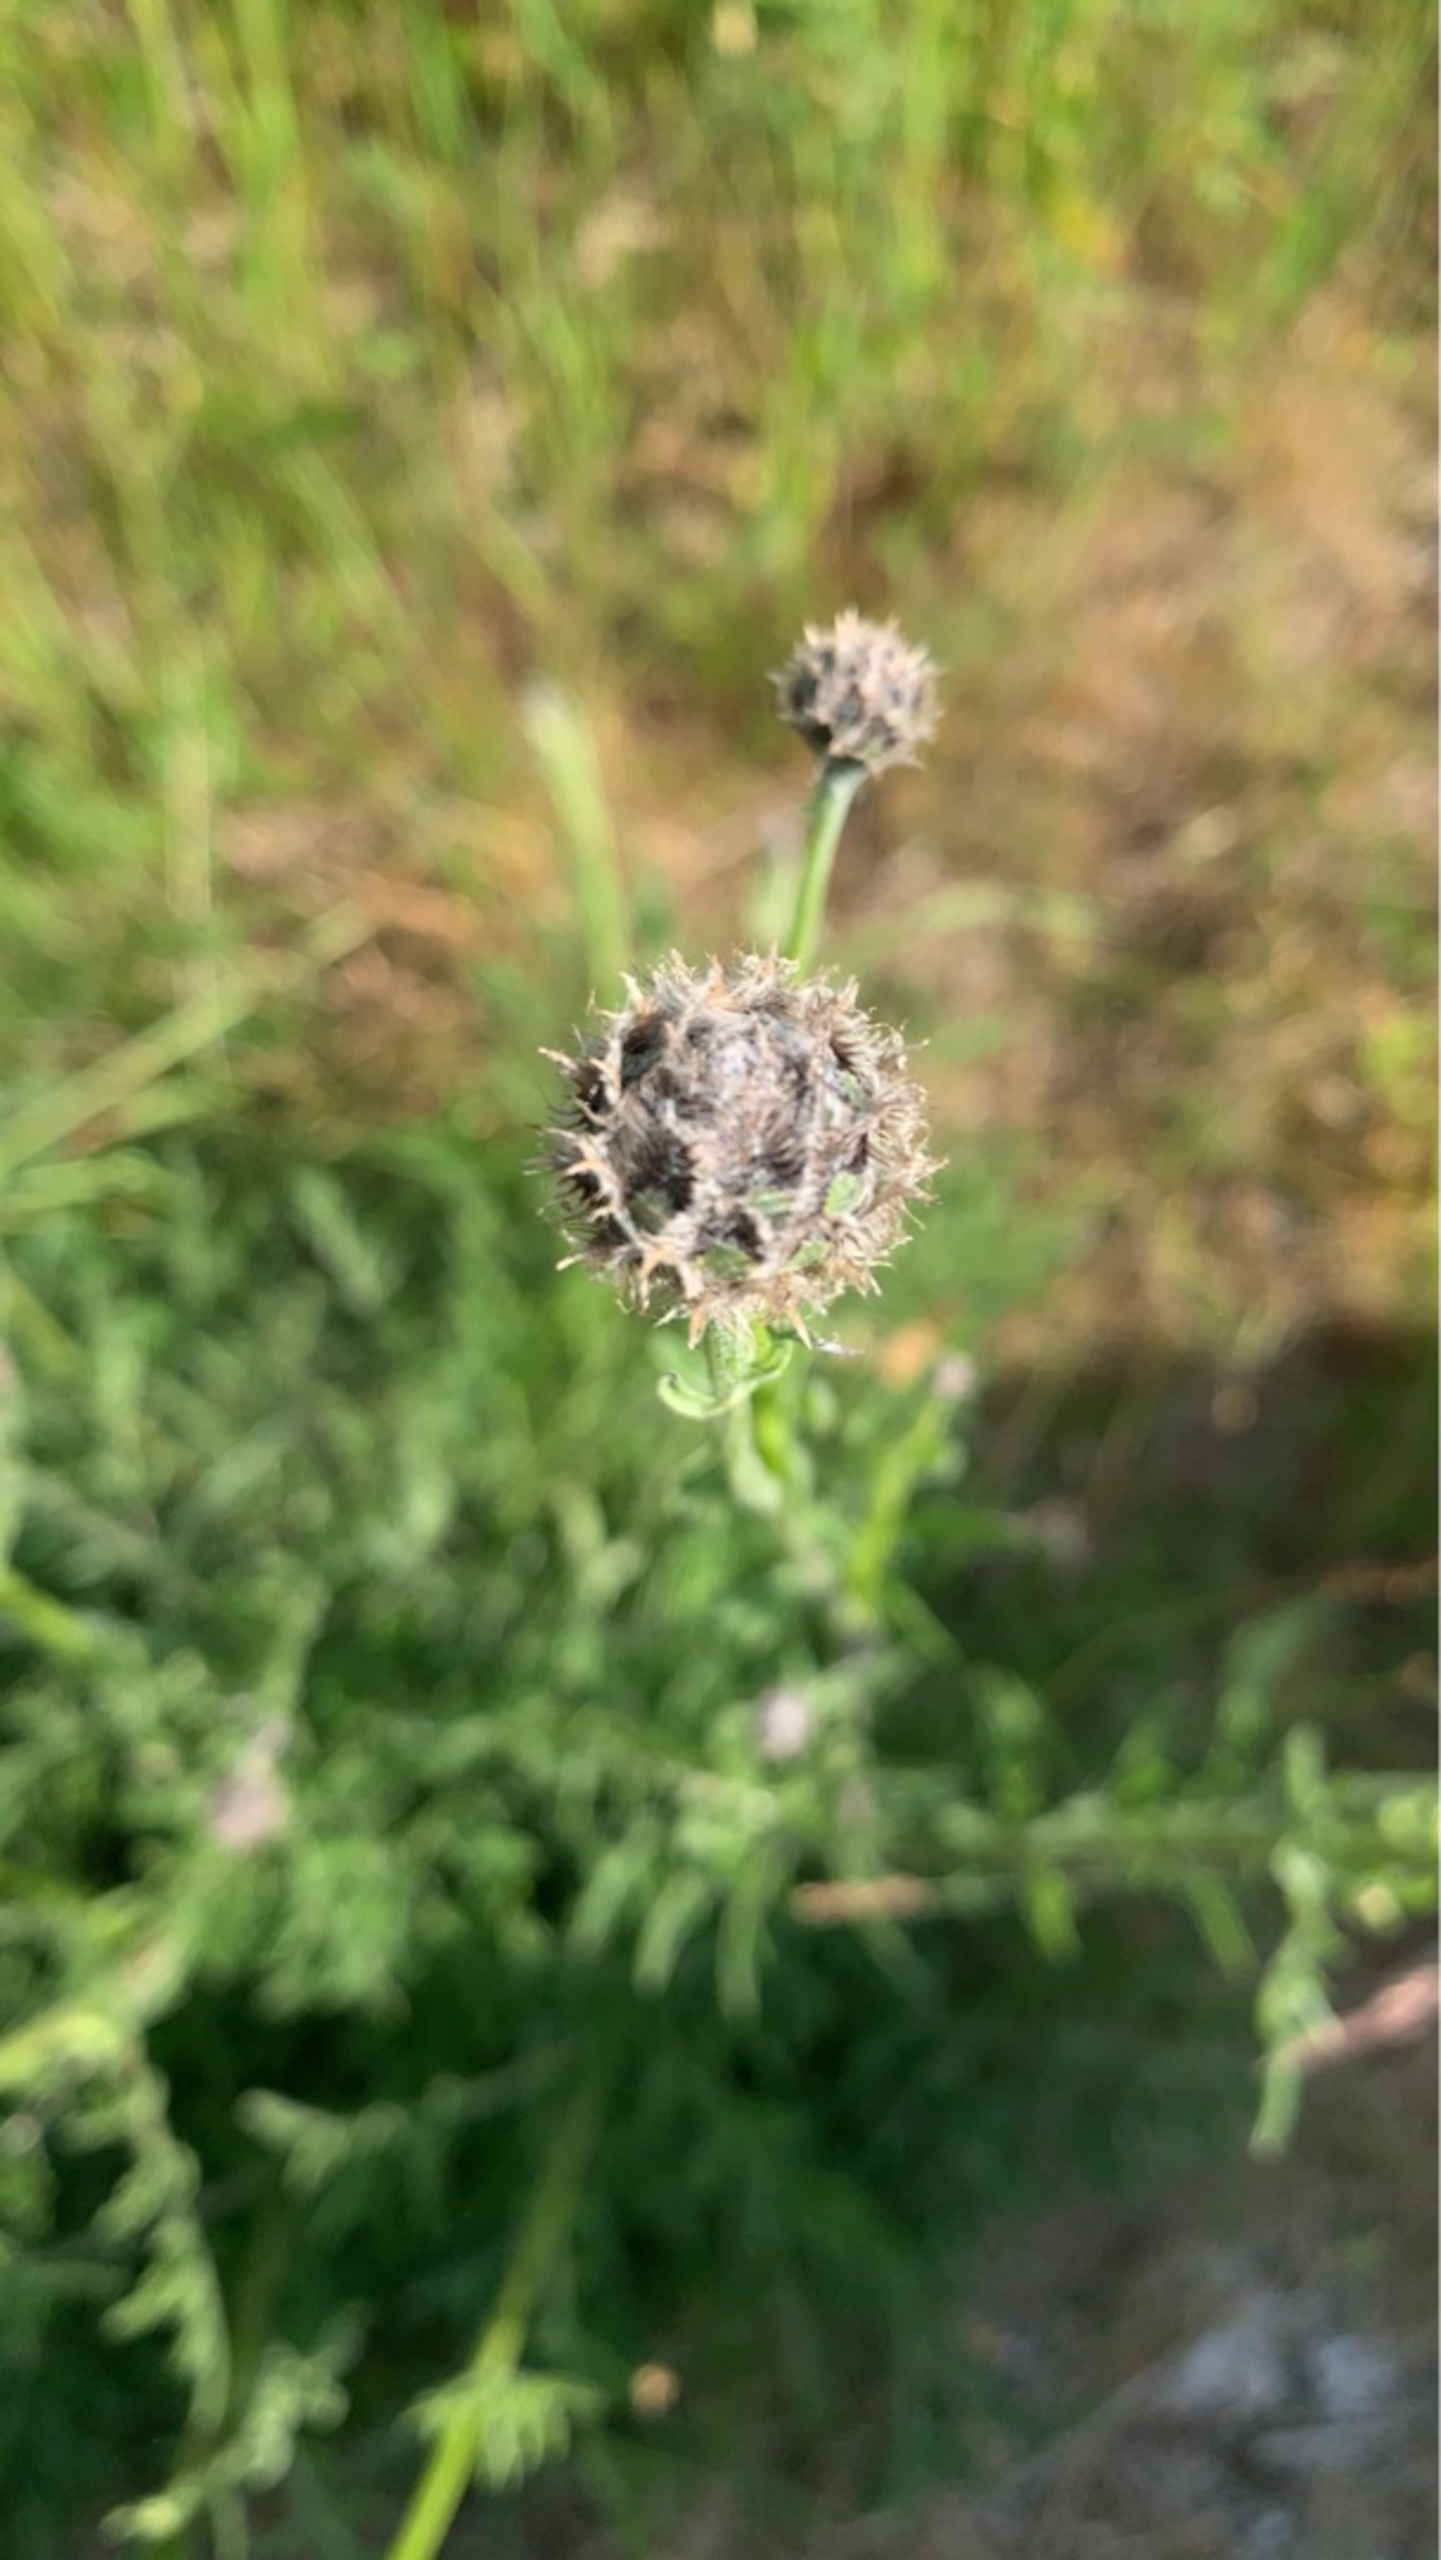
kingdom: Plantae
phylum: Tracheophyta
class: Magnoliopsida
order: Asterales
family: Asteraceae
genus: Centaurea
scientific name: Centaurea scabiosa
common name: Stor knopurt
